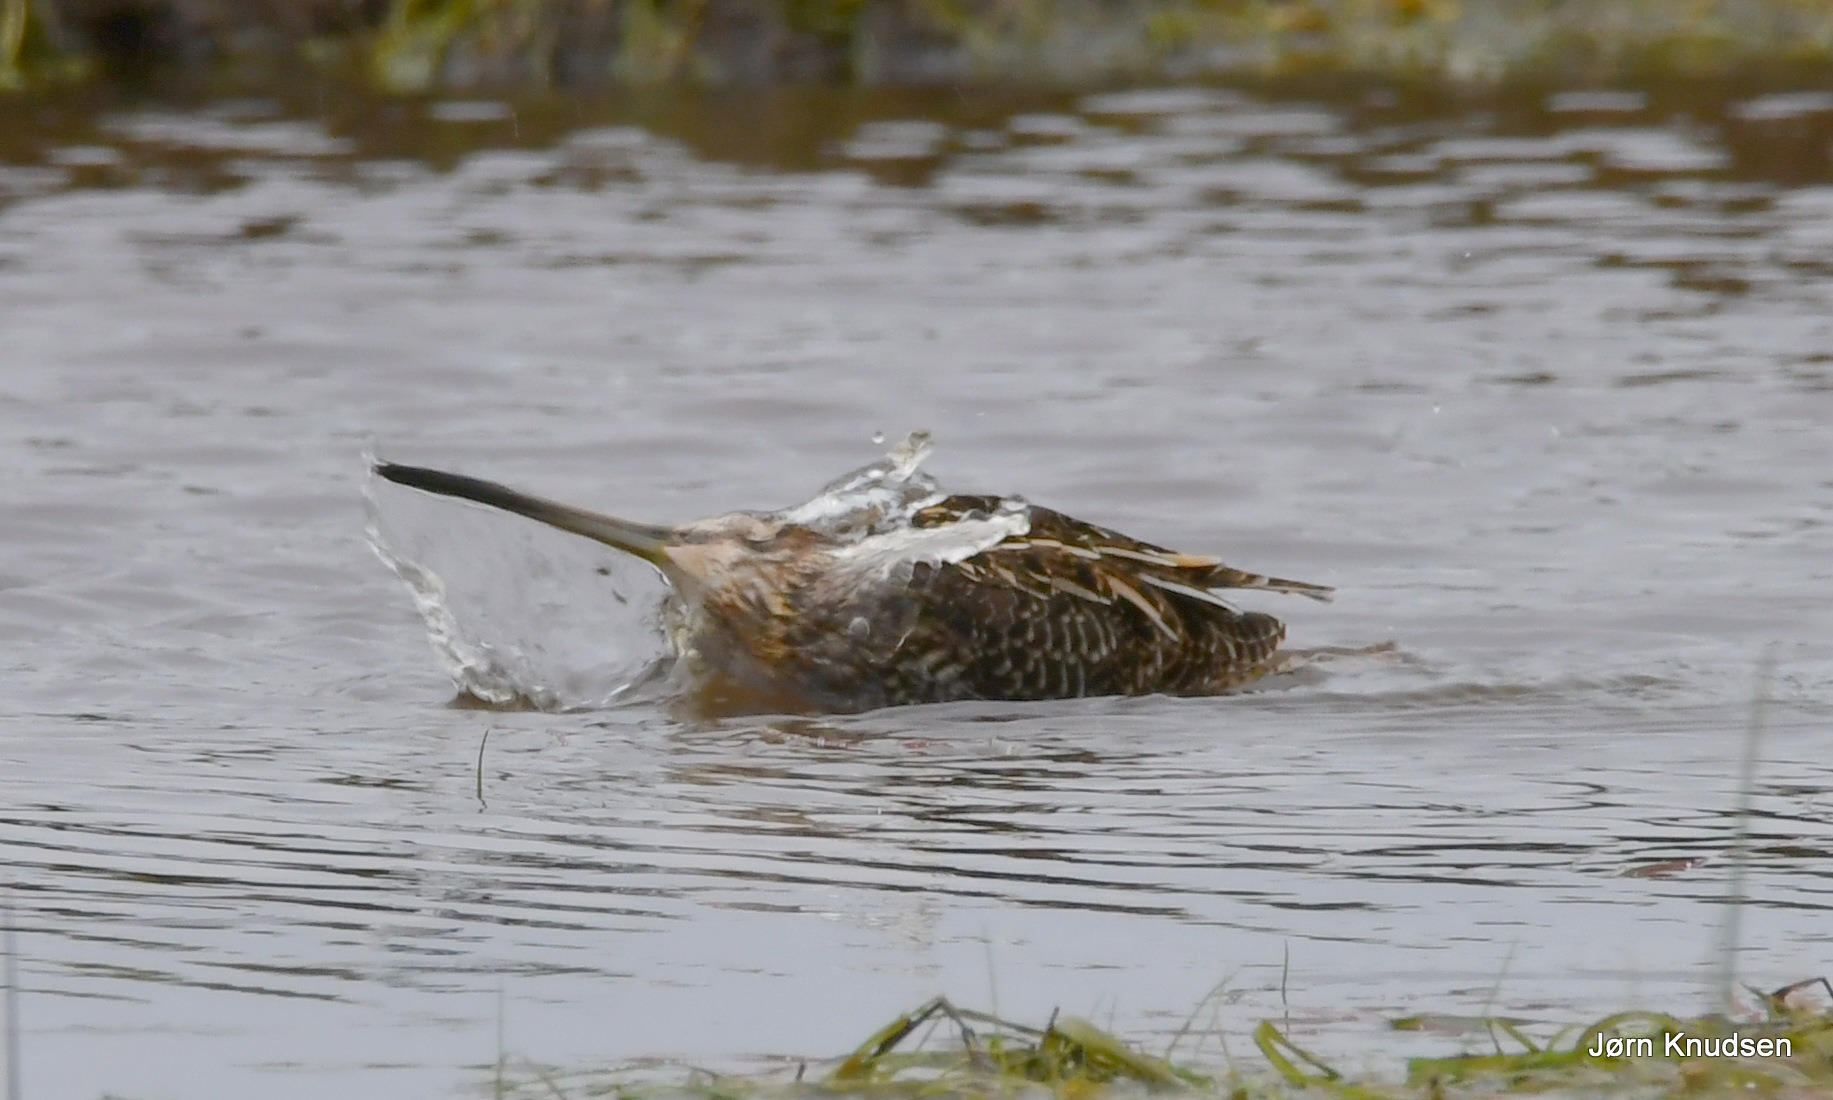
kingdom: Animalia
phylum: Chordata
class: Aves
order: Charadriiformes
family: Scolopacidae
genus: Gallinago
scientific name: Gallinago gallinago
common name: Dobbeltbekkasin
